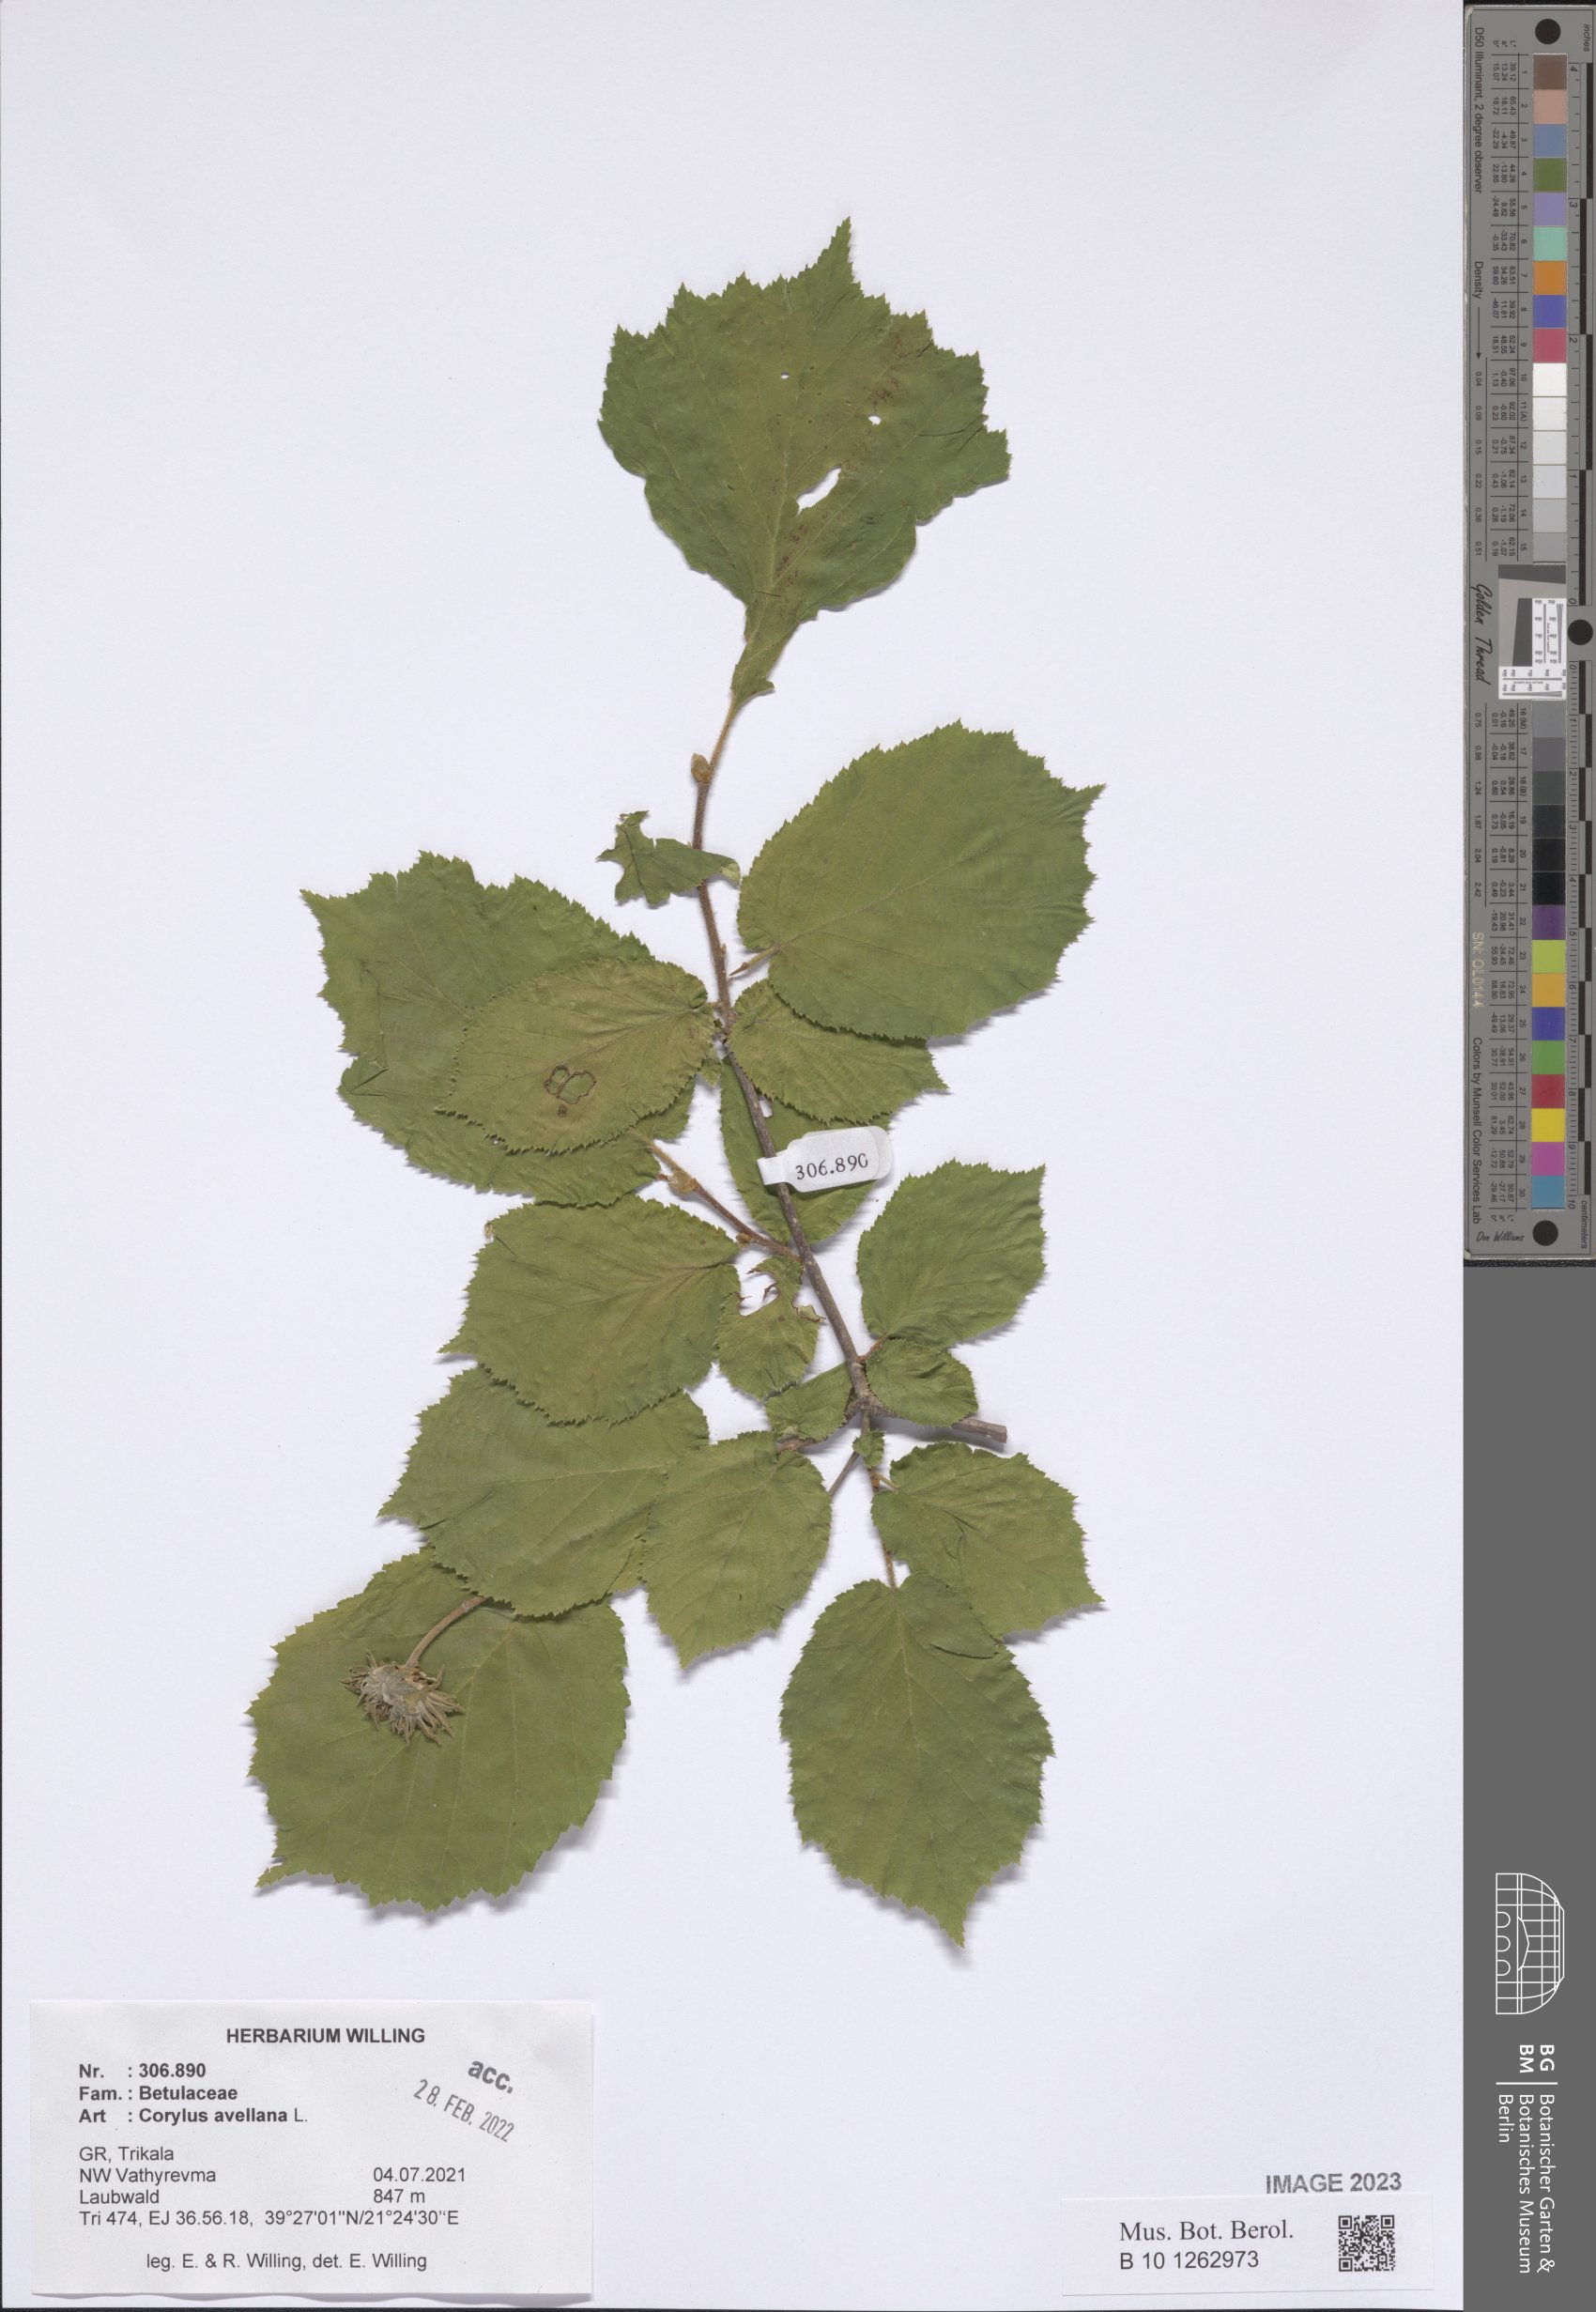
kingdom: Plantae
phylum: Tracheophyta
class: Magnoliopsida
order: Fagales
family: Betulaceae
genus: Corylus
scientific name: Corylus avellana
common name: European hazel
